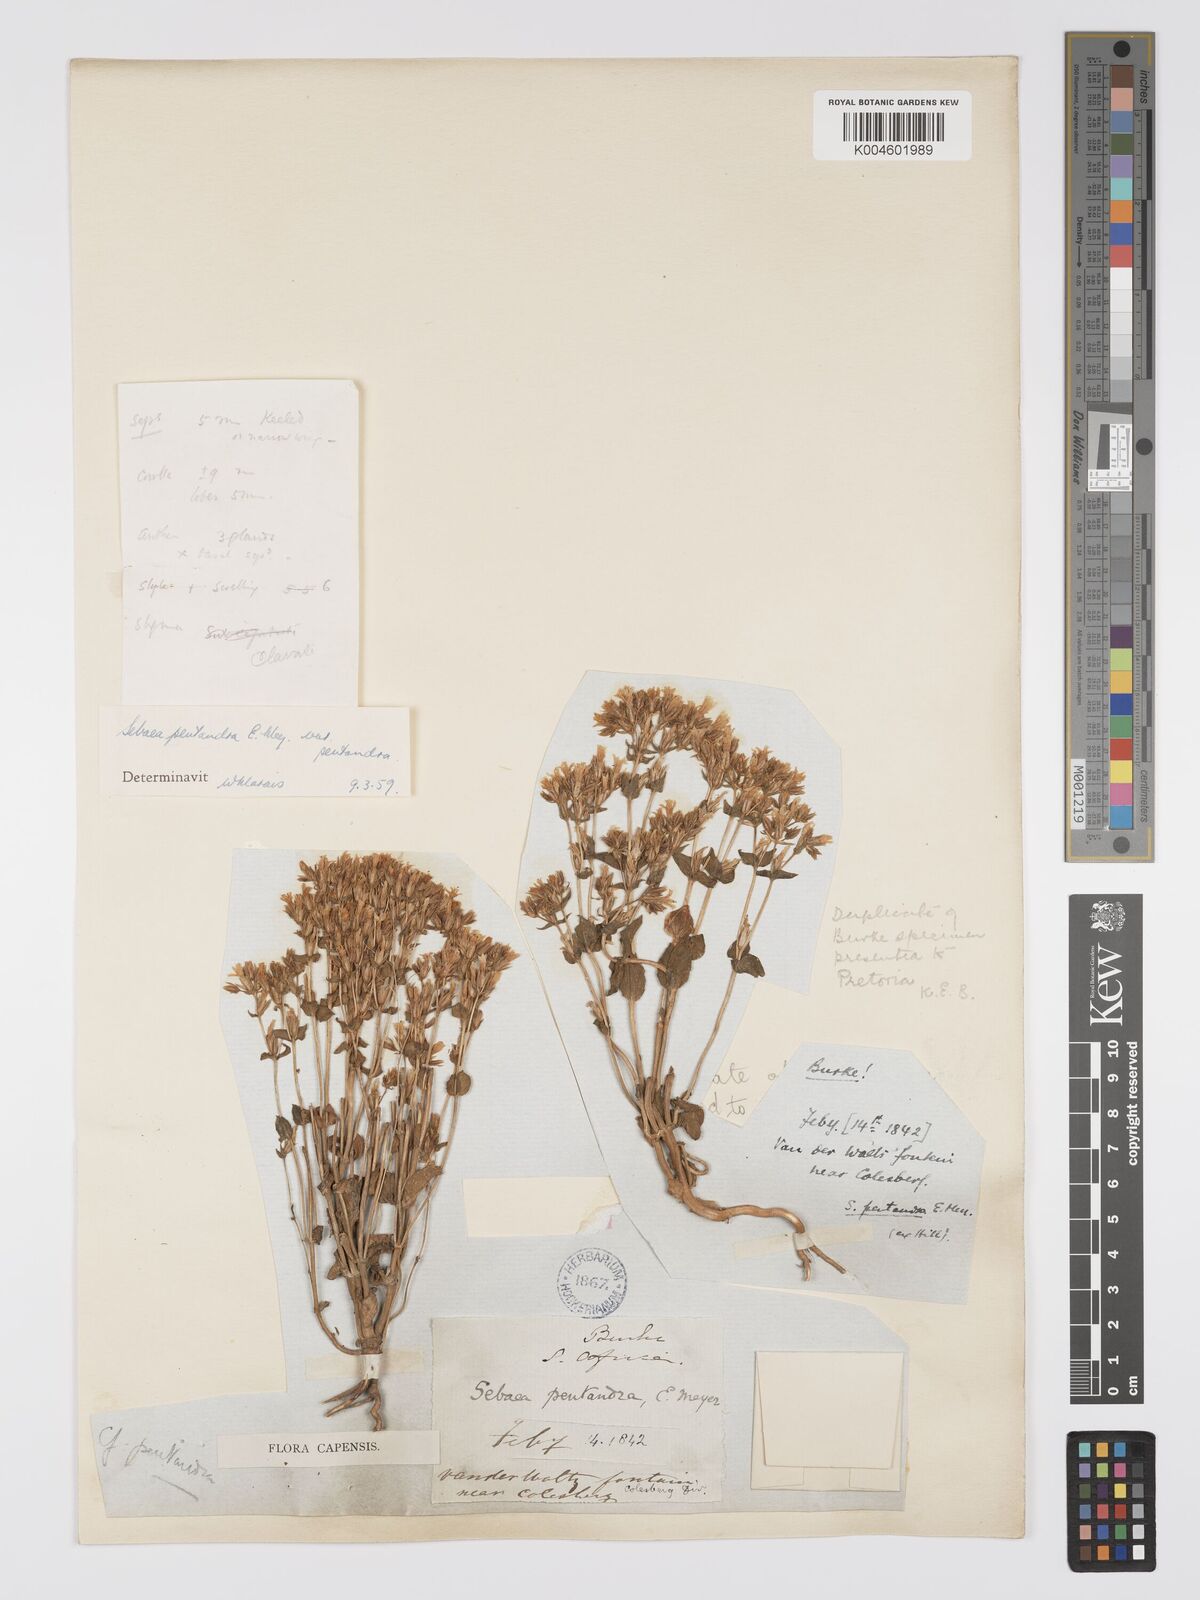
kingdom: Plantae
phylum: Tracheophyta
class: Magnoliopsida
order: Gentianales
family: Gentianaceae
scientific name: Gentianaceae
